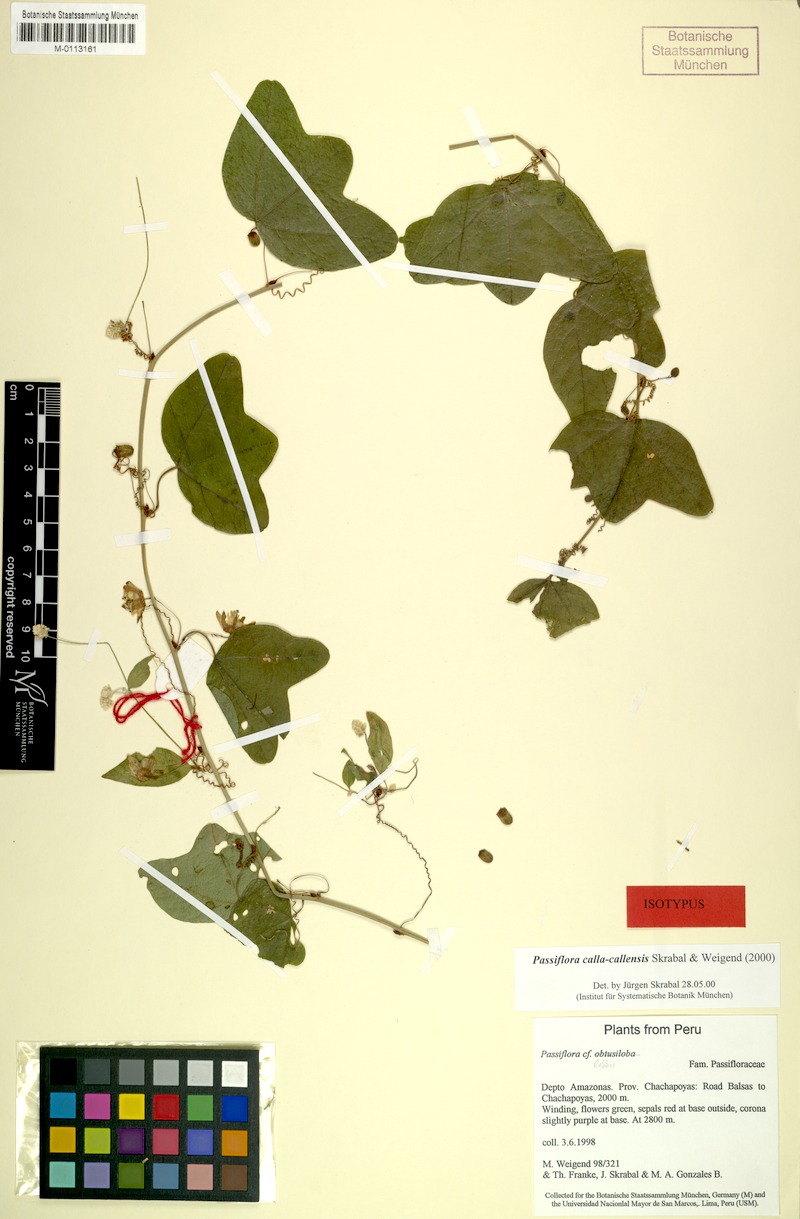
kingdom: Plantae
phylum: Tracheophyta
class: Magnoliopsida
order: Malpighiales
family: Passifloraceae
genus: Passiflora
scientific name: Passiflora callacallensis
